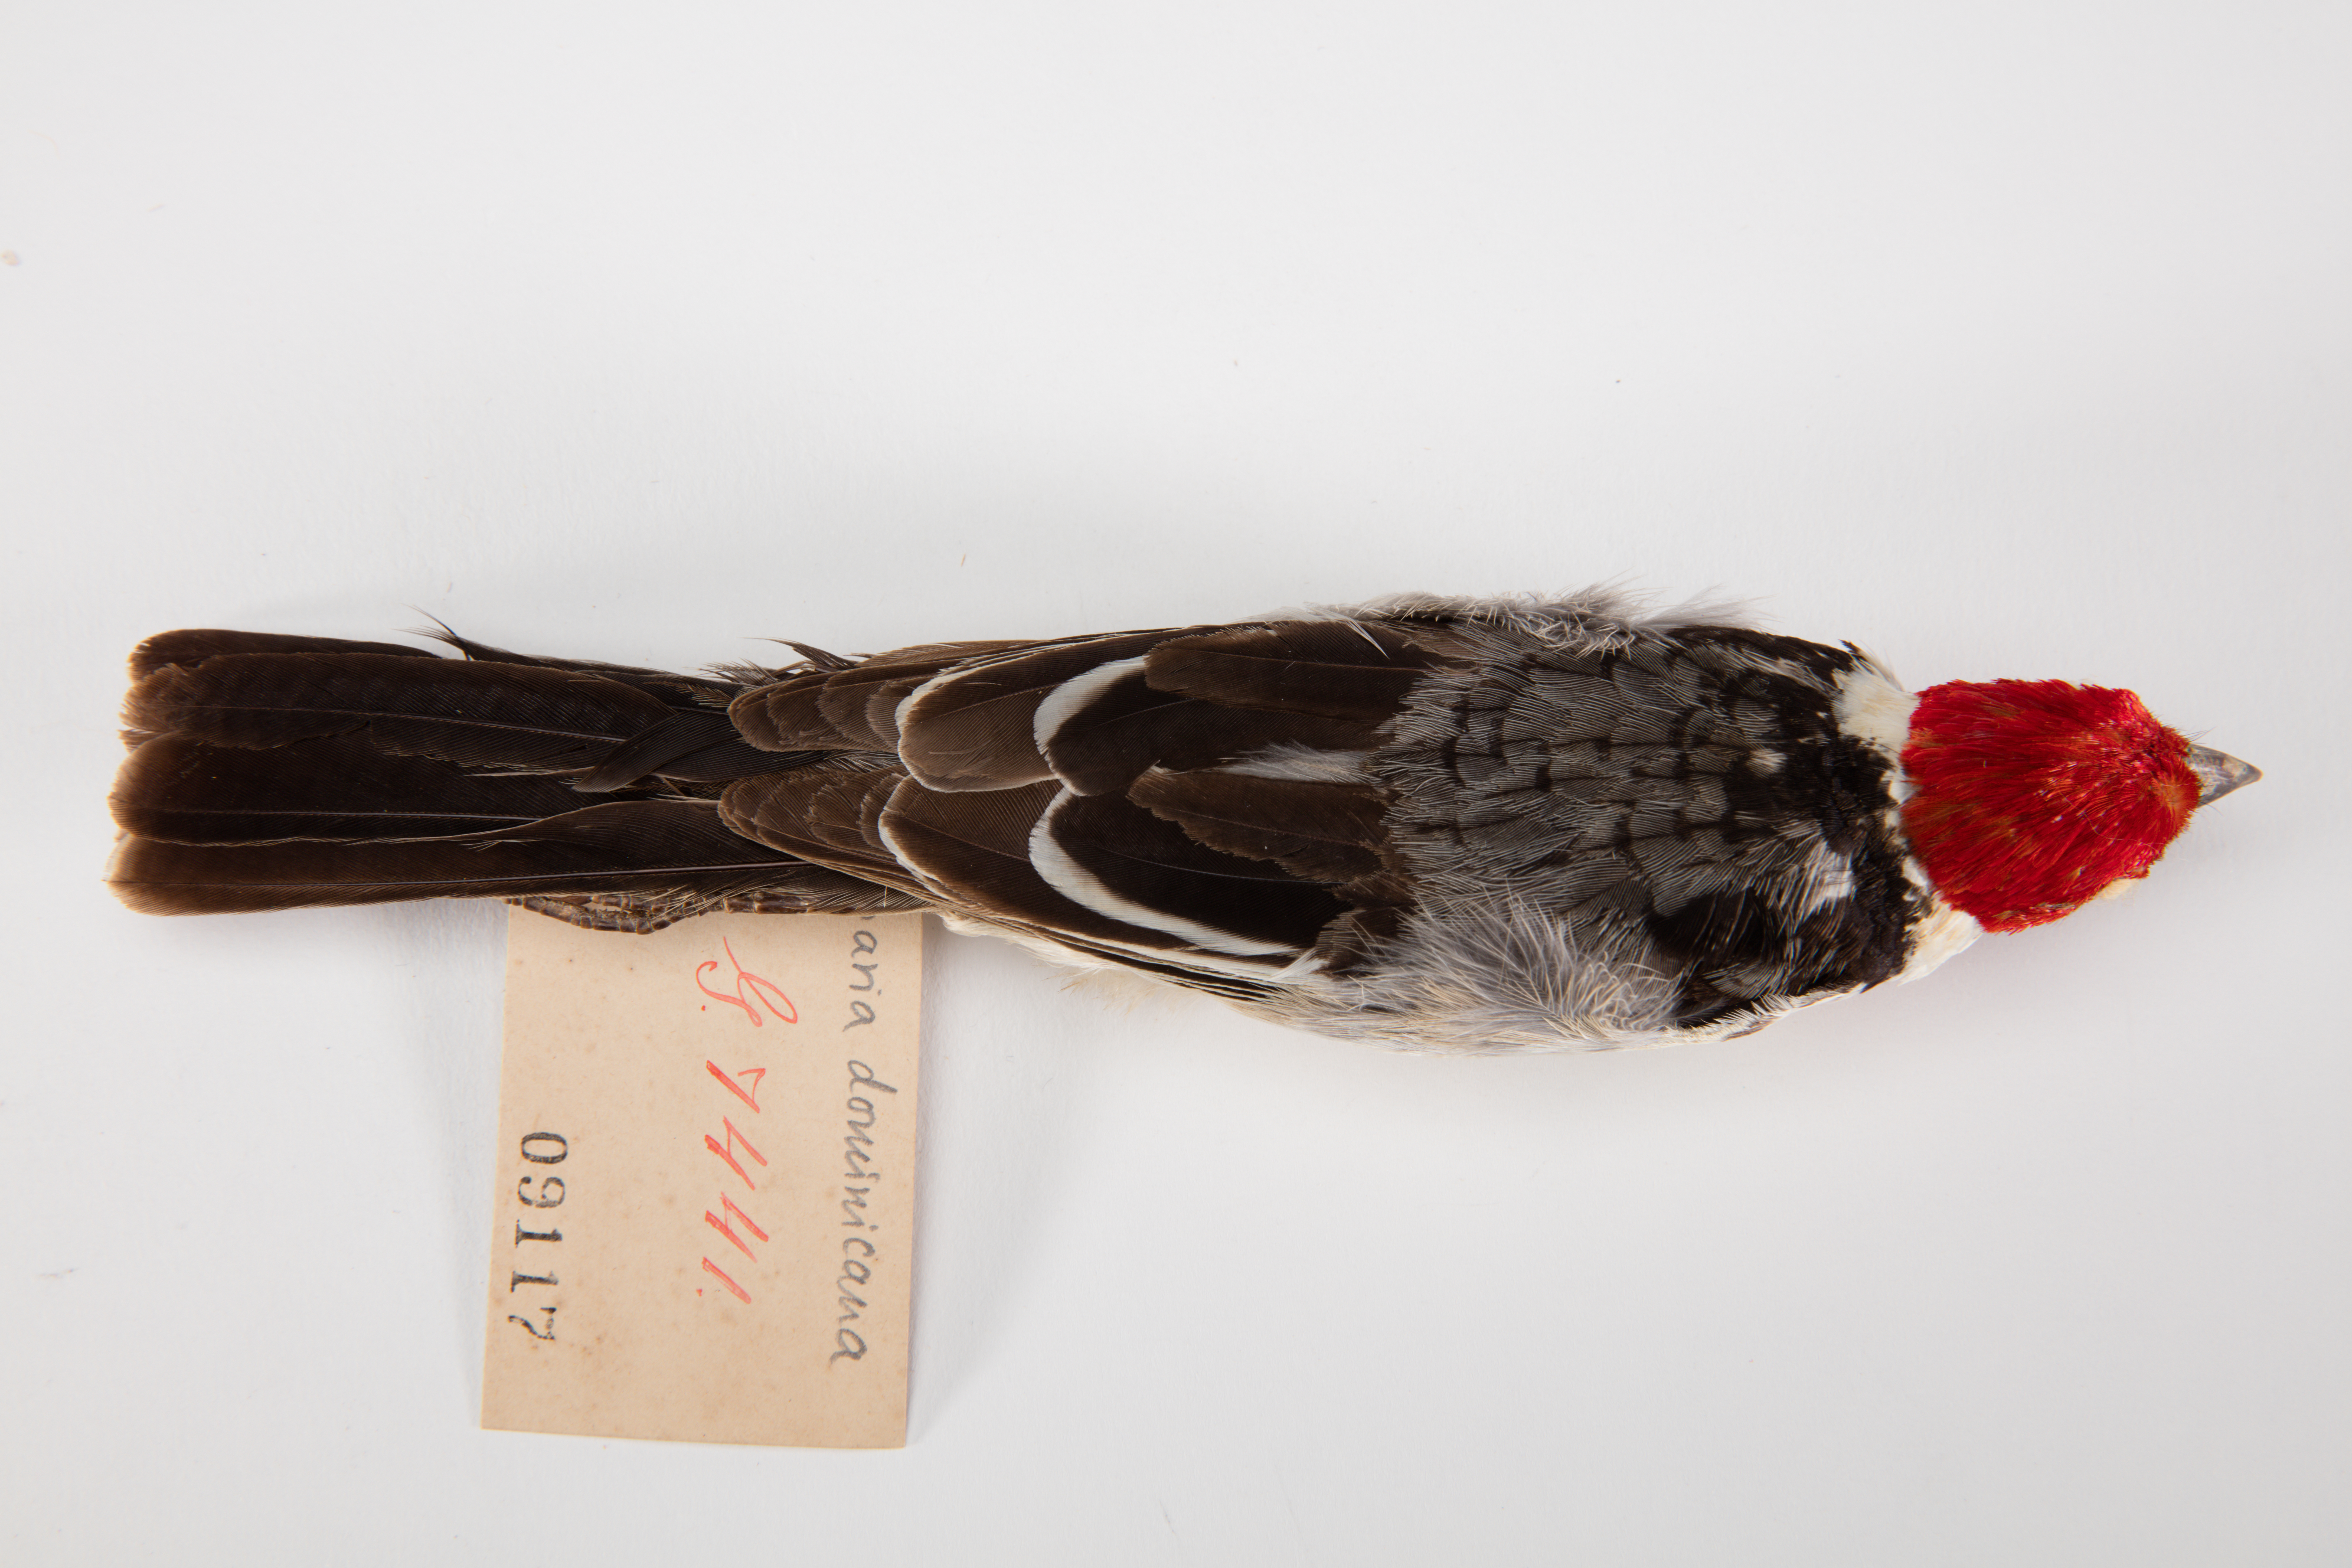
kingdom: Animalia
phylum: Chordata
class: Aves
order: Passeriformes
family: Thraupidae
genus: Paroaria
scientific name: Paroaria dominicana
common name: Red-cowled cardinal
